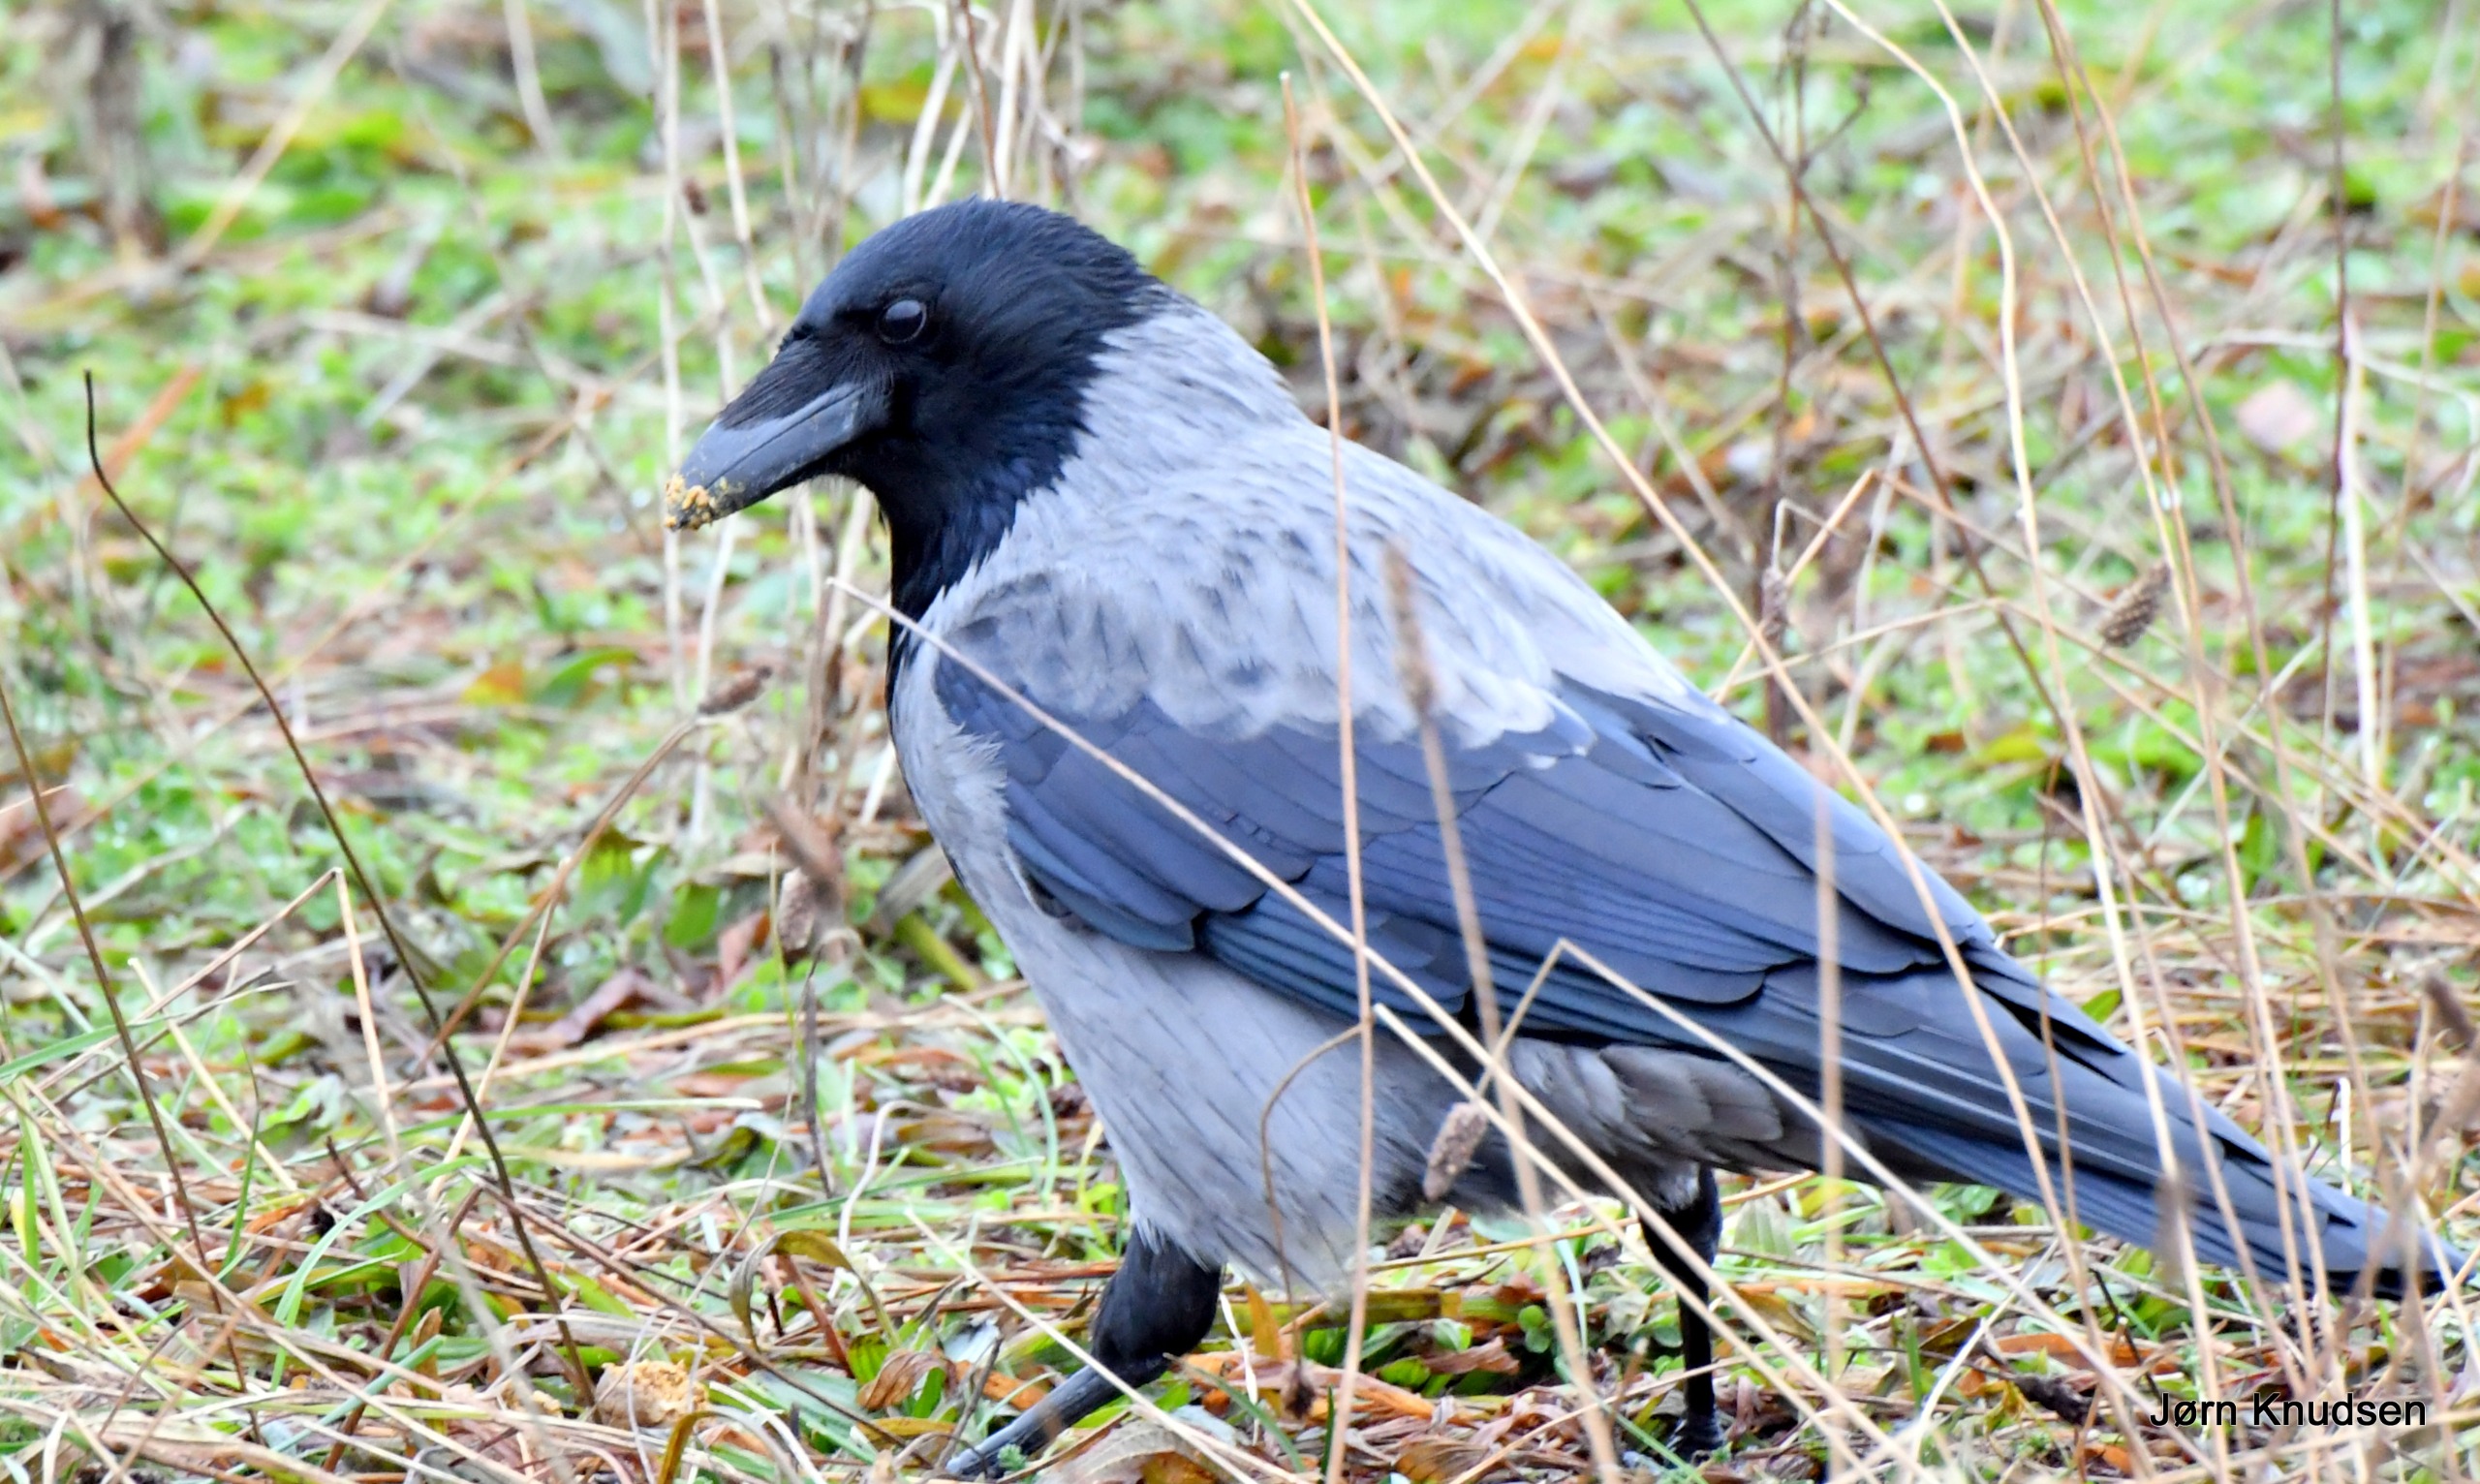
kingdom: Animalia
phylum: Chordata
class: Aves
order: Passeriformes
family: Corvidae
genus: Corvus
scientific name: Corvus cornix
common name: Gråkrage
